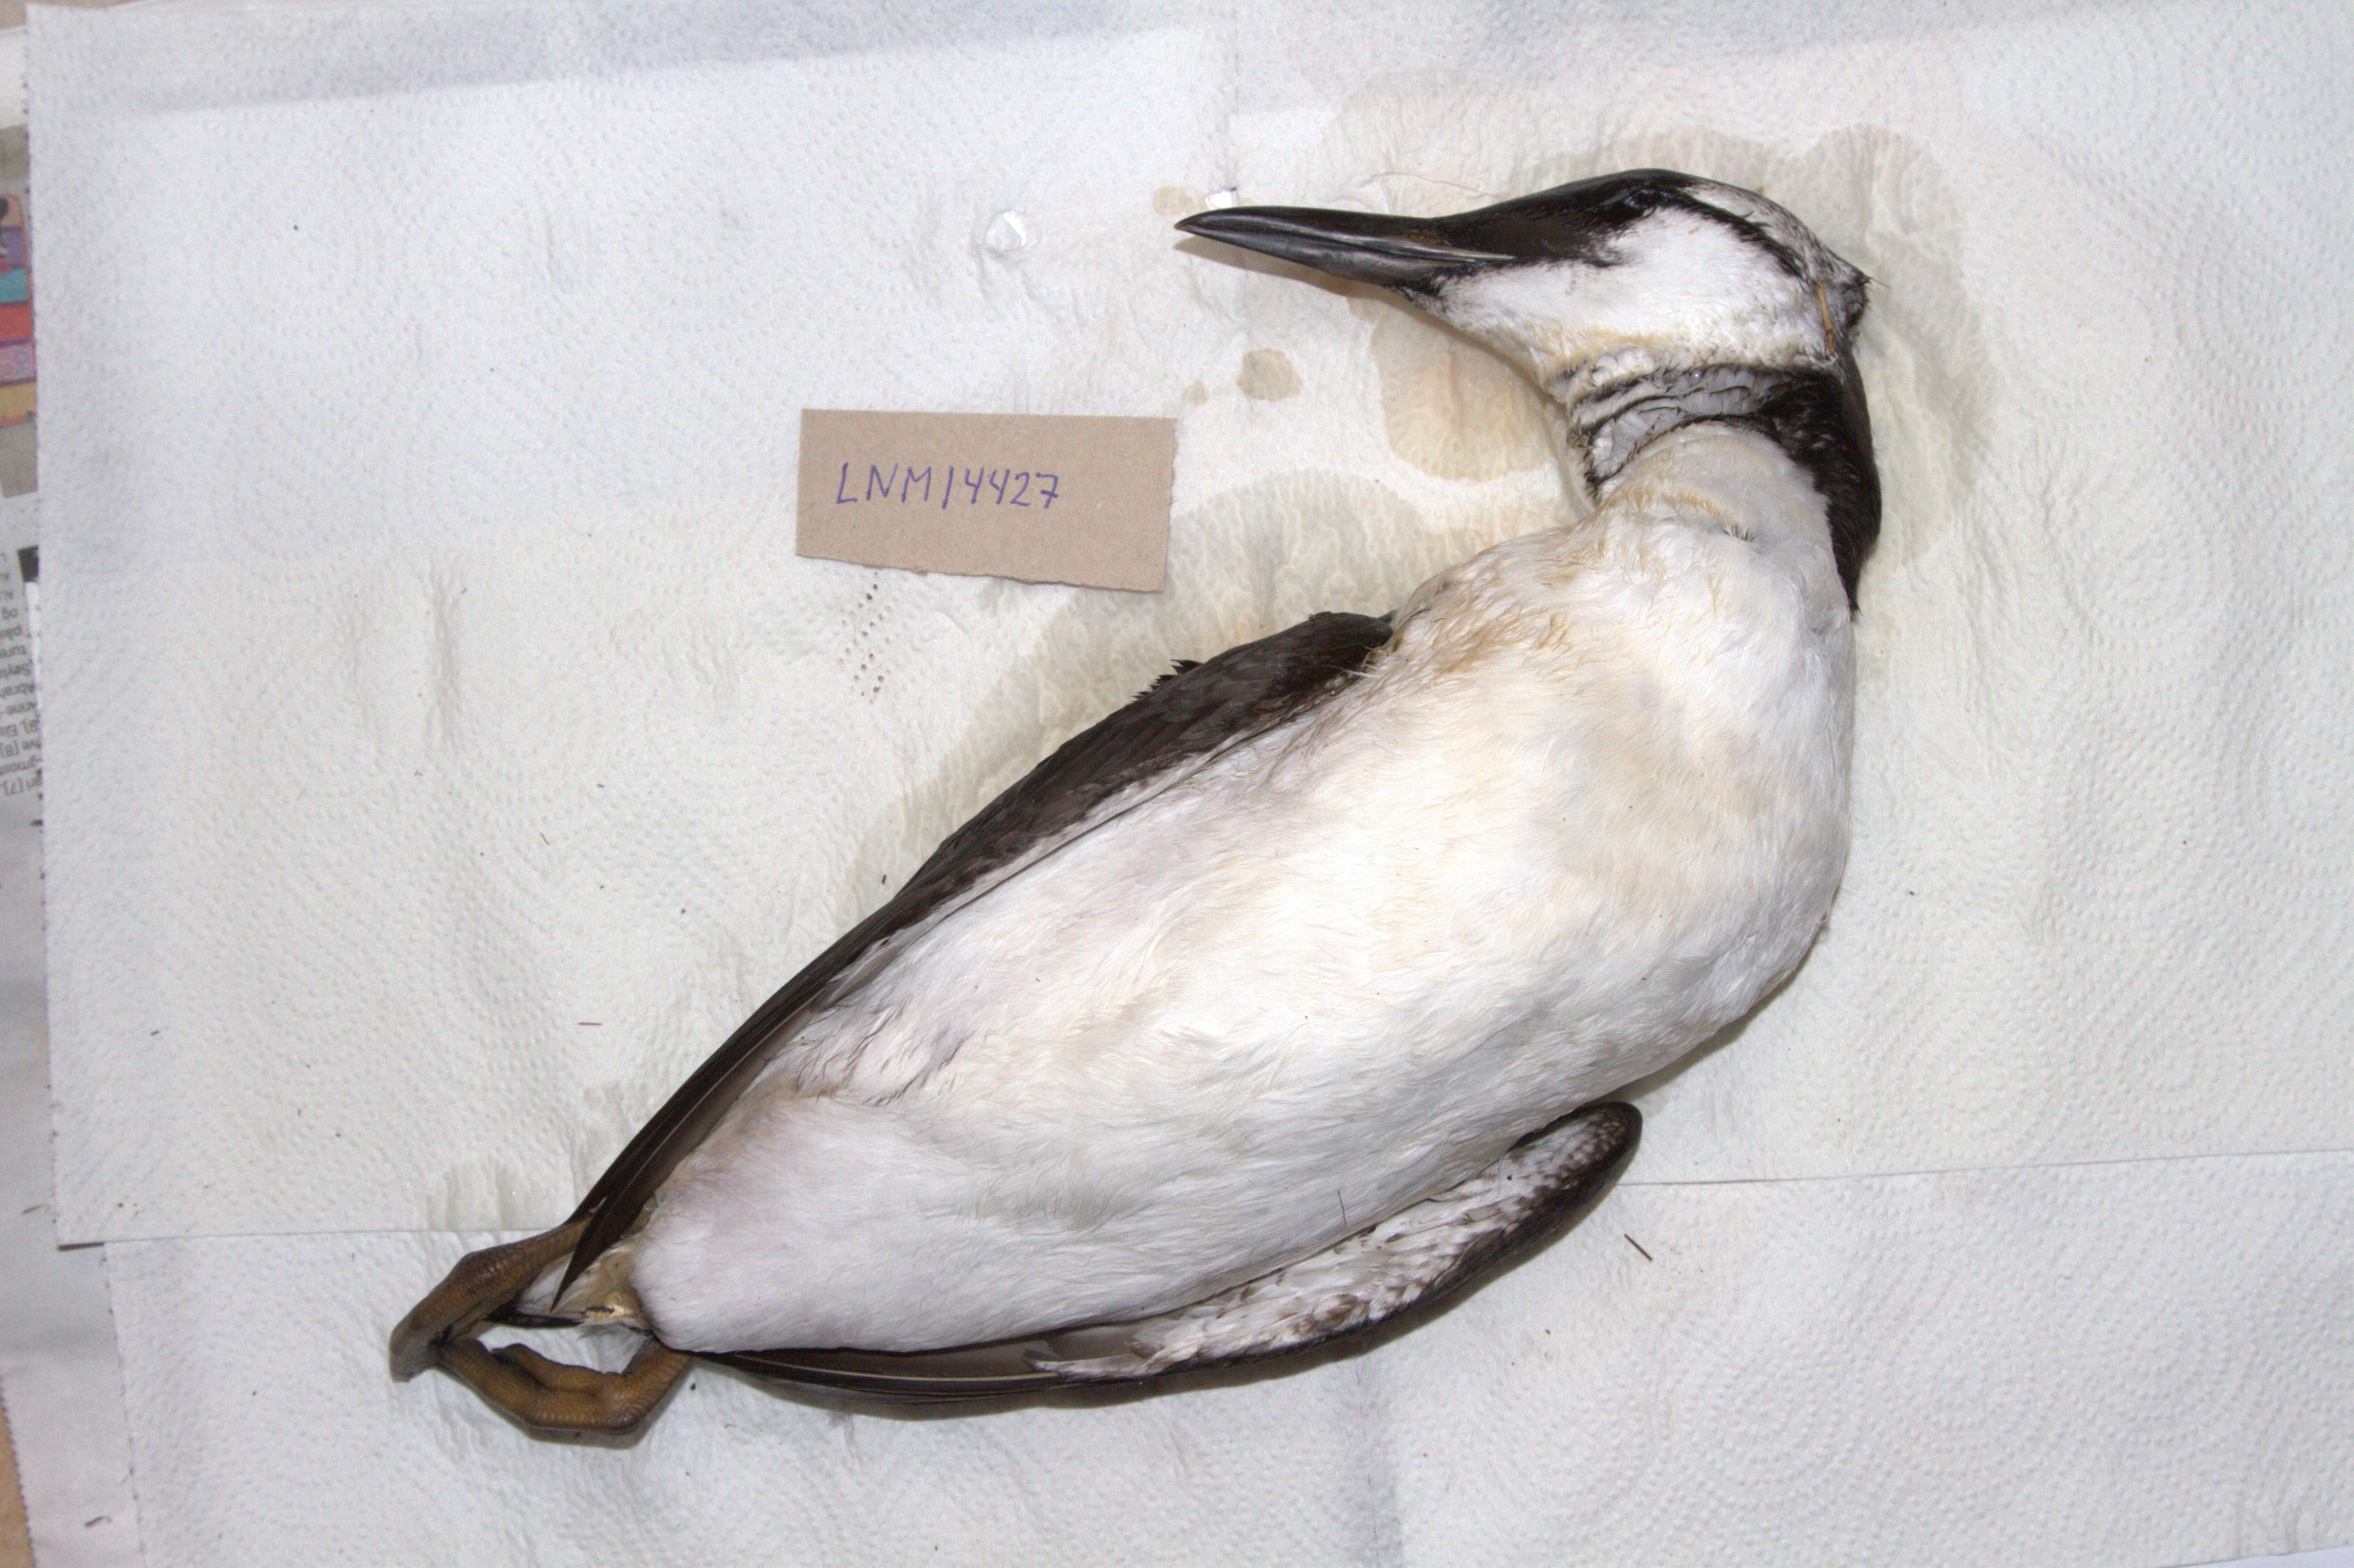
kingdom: Animalia
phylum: Chordata
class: Aves
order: Charadriiformes
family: Alcidae
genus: Uria
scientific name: Uria aalge
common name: Common murre
